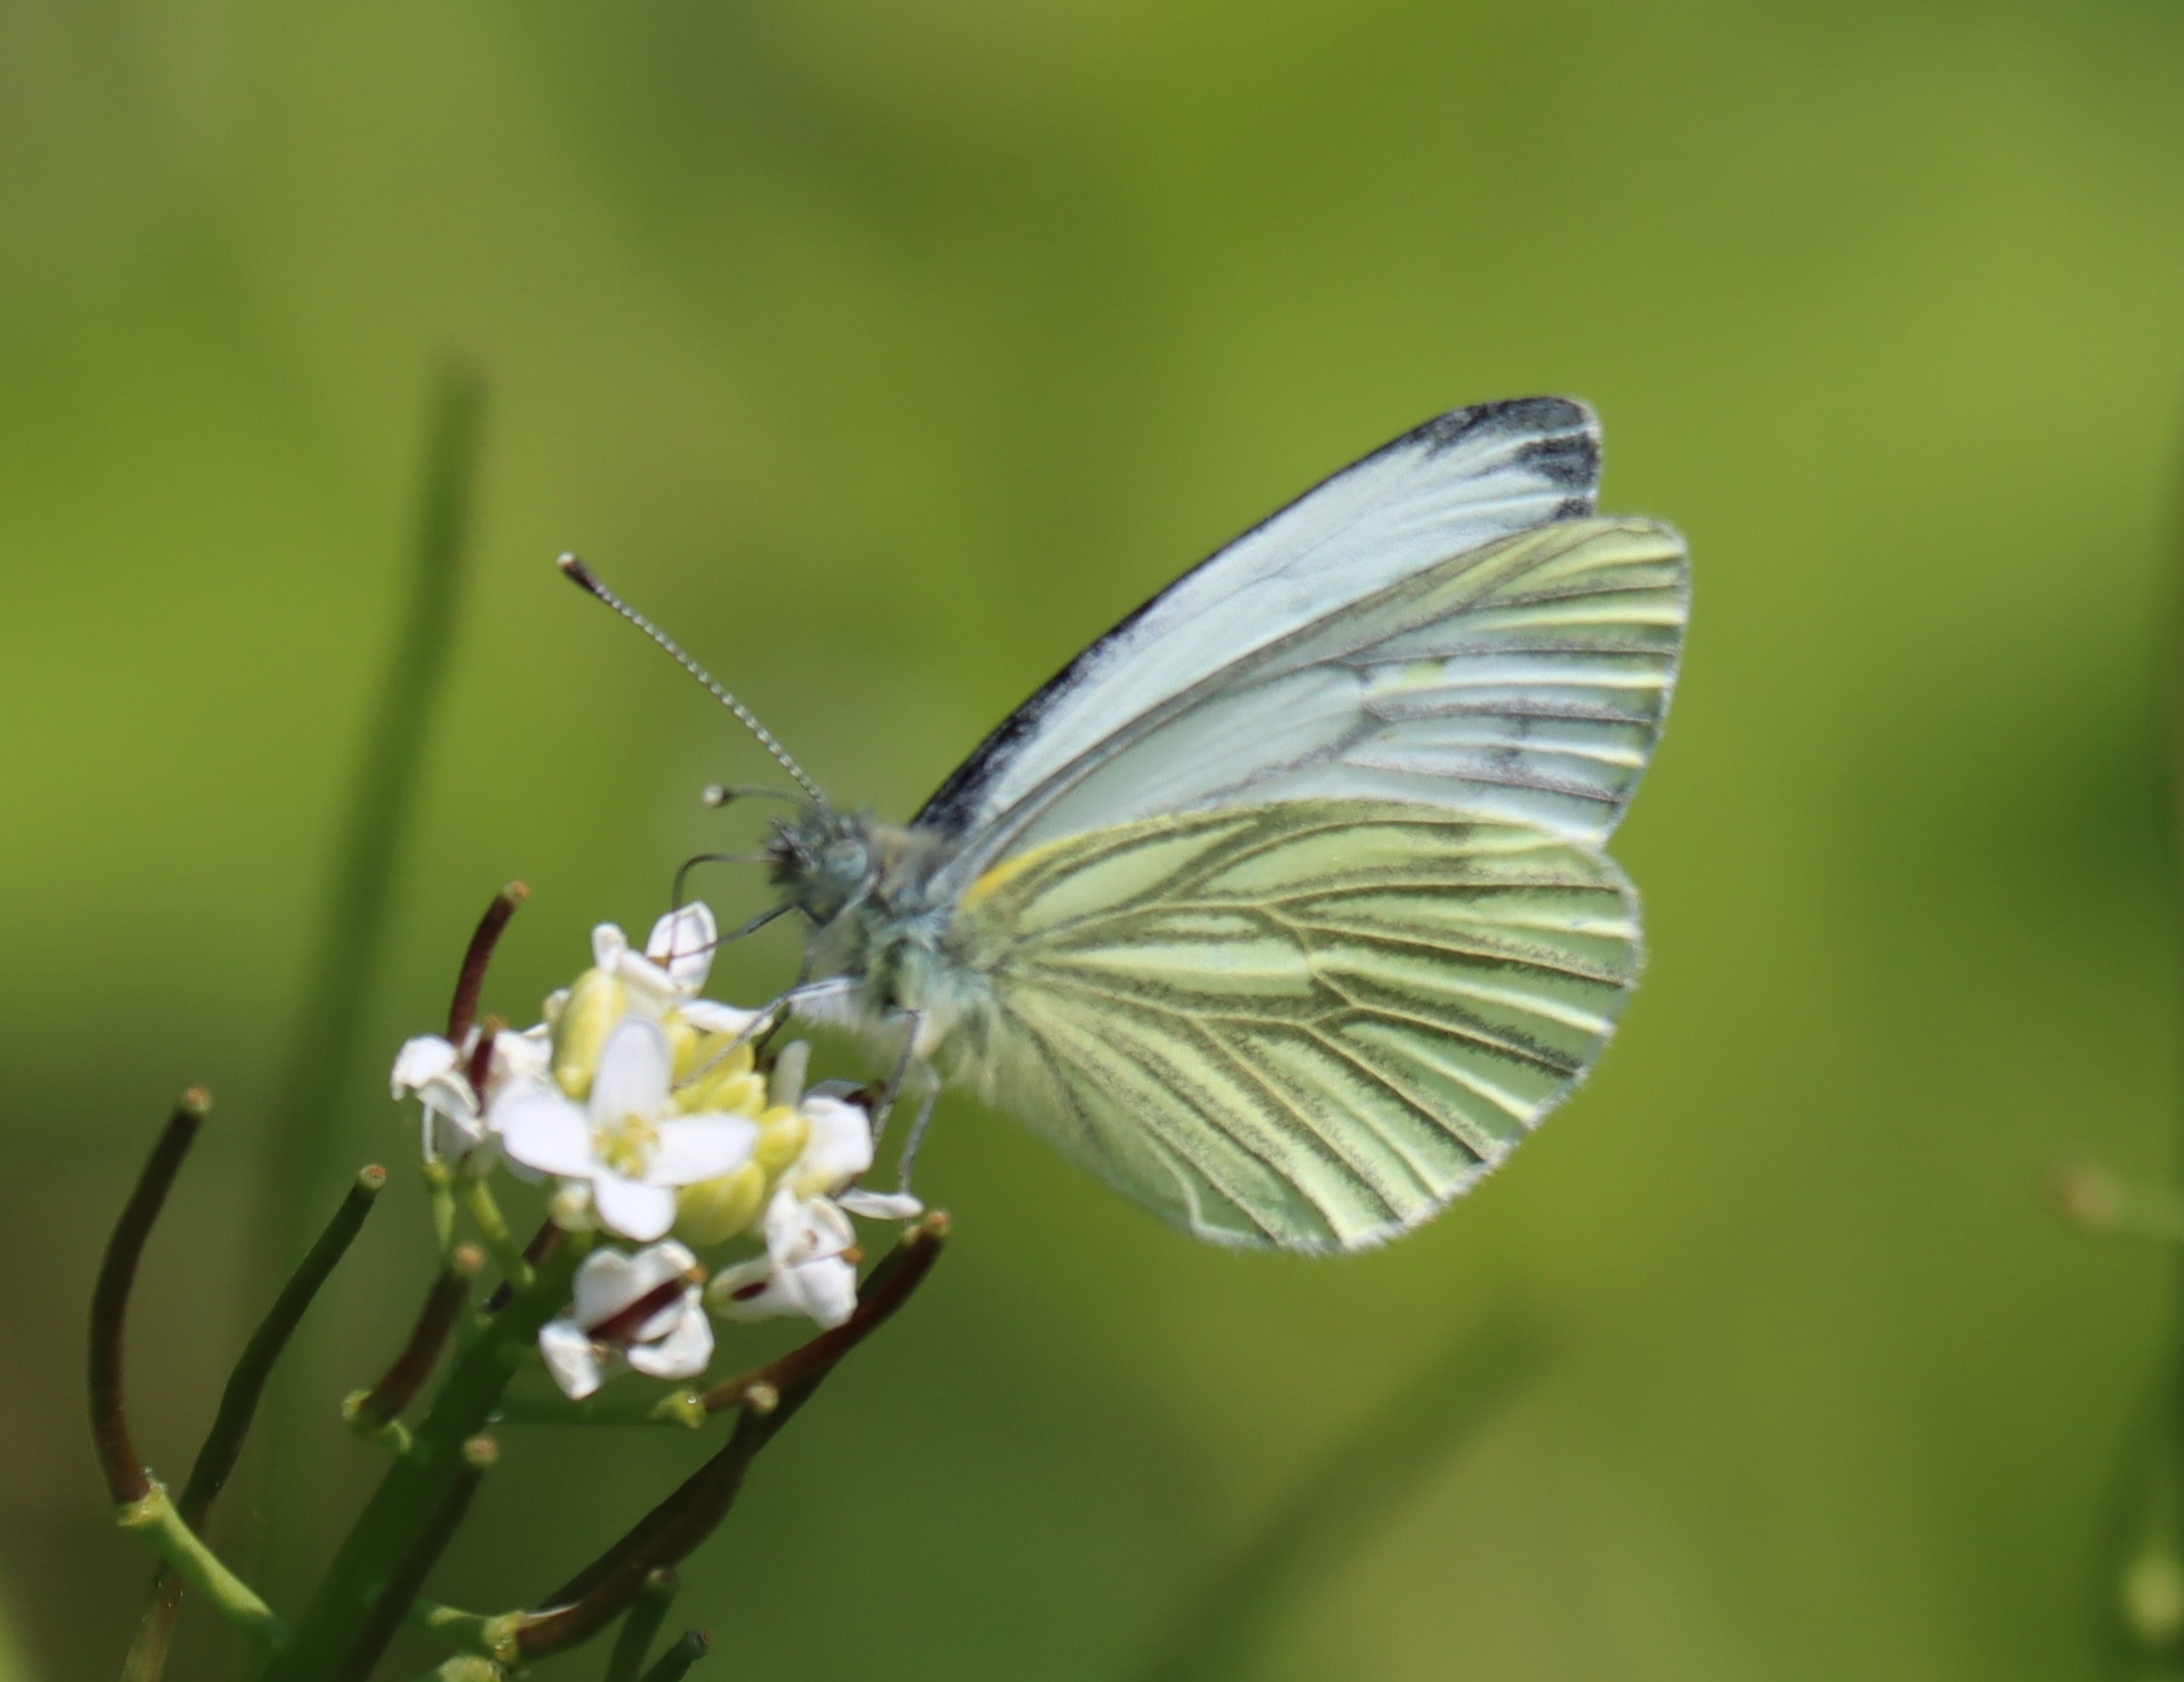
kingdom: Animalia
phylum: Arthropoda
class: Insecta
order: Lepidoptera
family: Pieridae
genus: Pieris
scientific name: Pieris napi
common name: Grønåret kålsommerfugl
